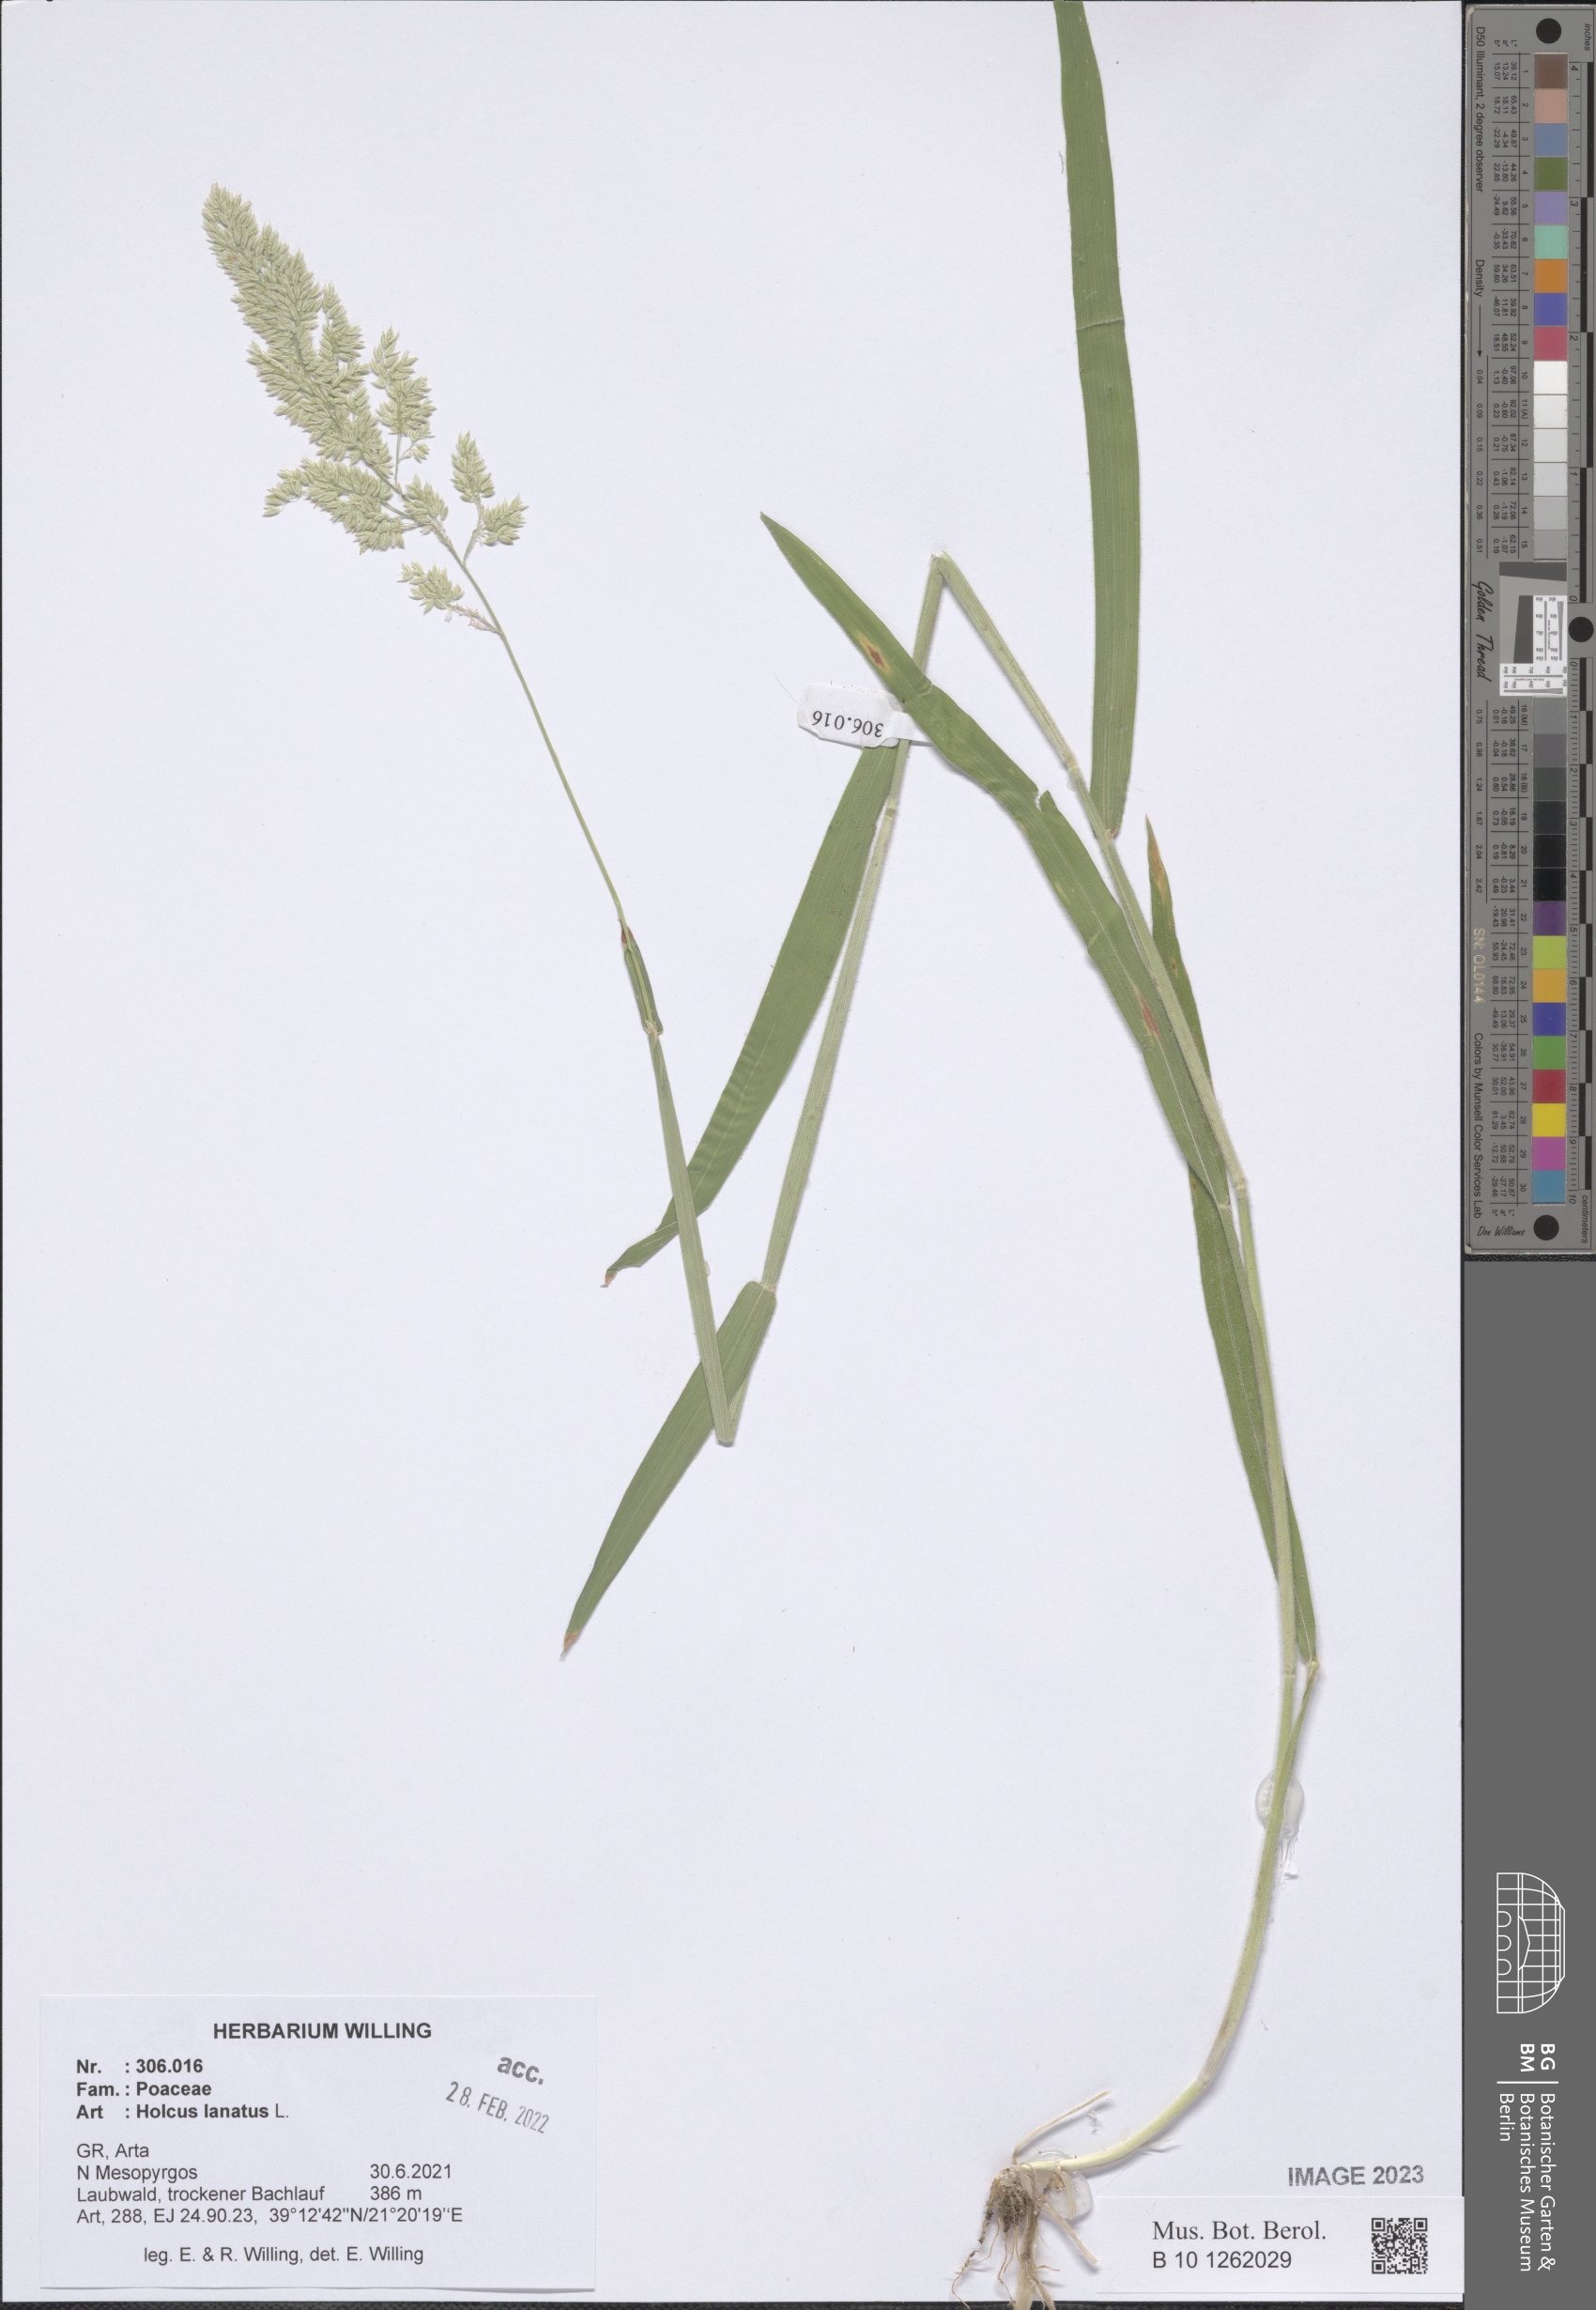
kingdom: Plantae
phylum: Tracheophyta
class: Liliopsida
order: Poales
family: Poaceae
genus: Holcus
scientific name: Holcus lanatus
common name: Yorkshire-fog
